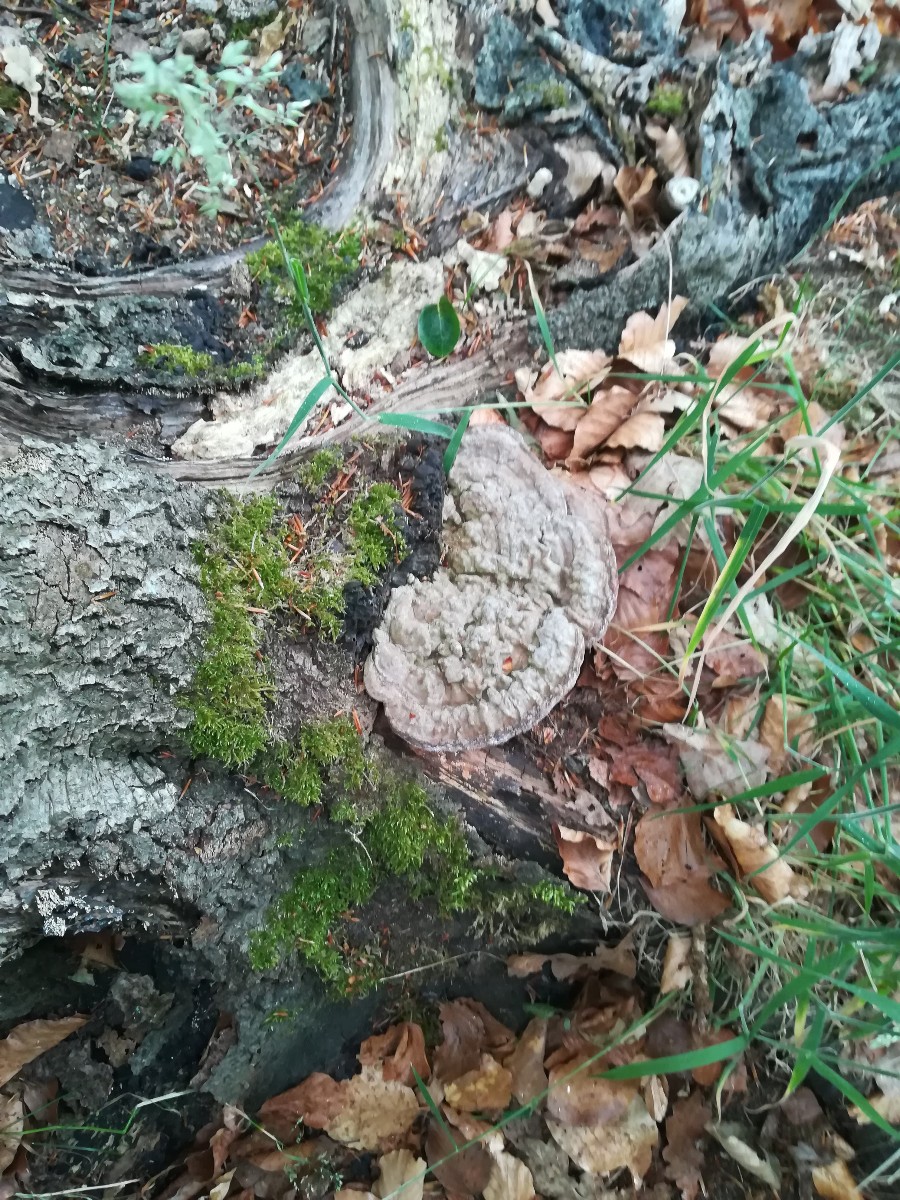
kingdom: Fungi
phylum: Basidiomycota
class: Agaricomycetes
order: Polyporales
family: Polyporaceae
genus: Ganoderma
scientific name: Ganoderma applanatum
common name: flad lakporesvamp
